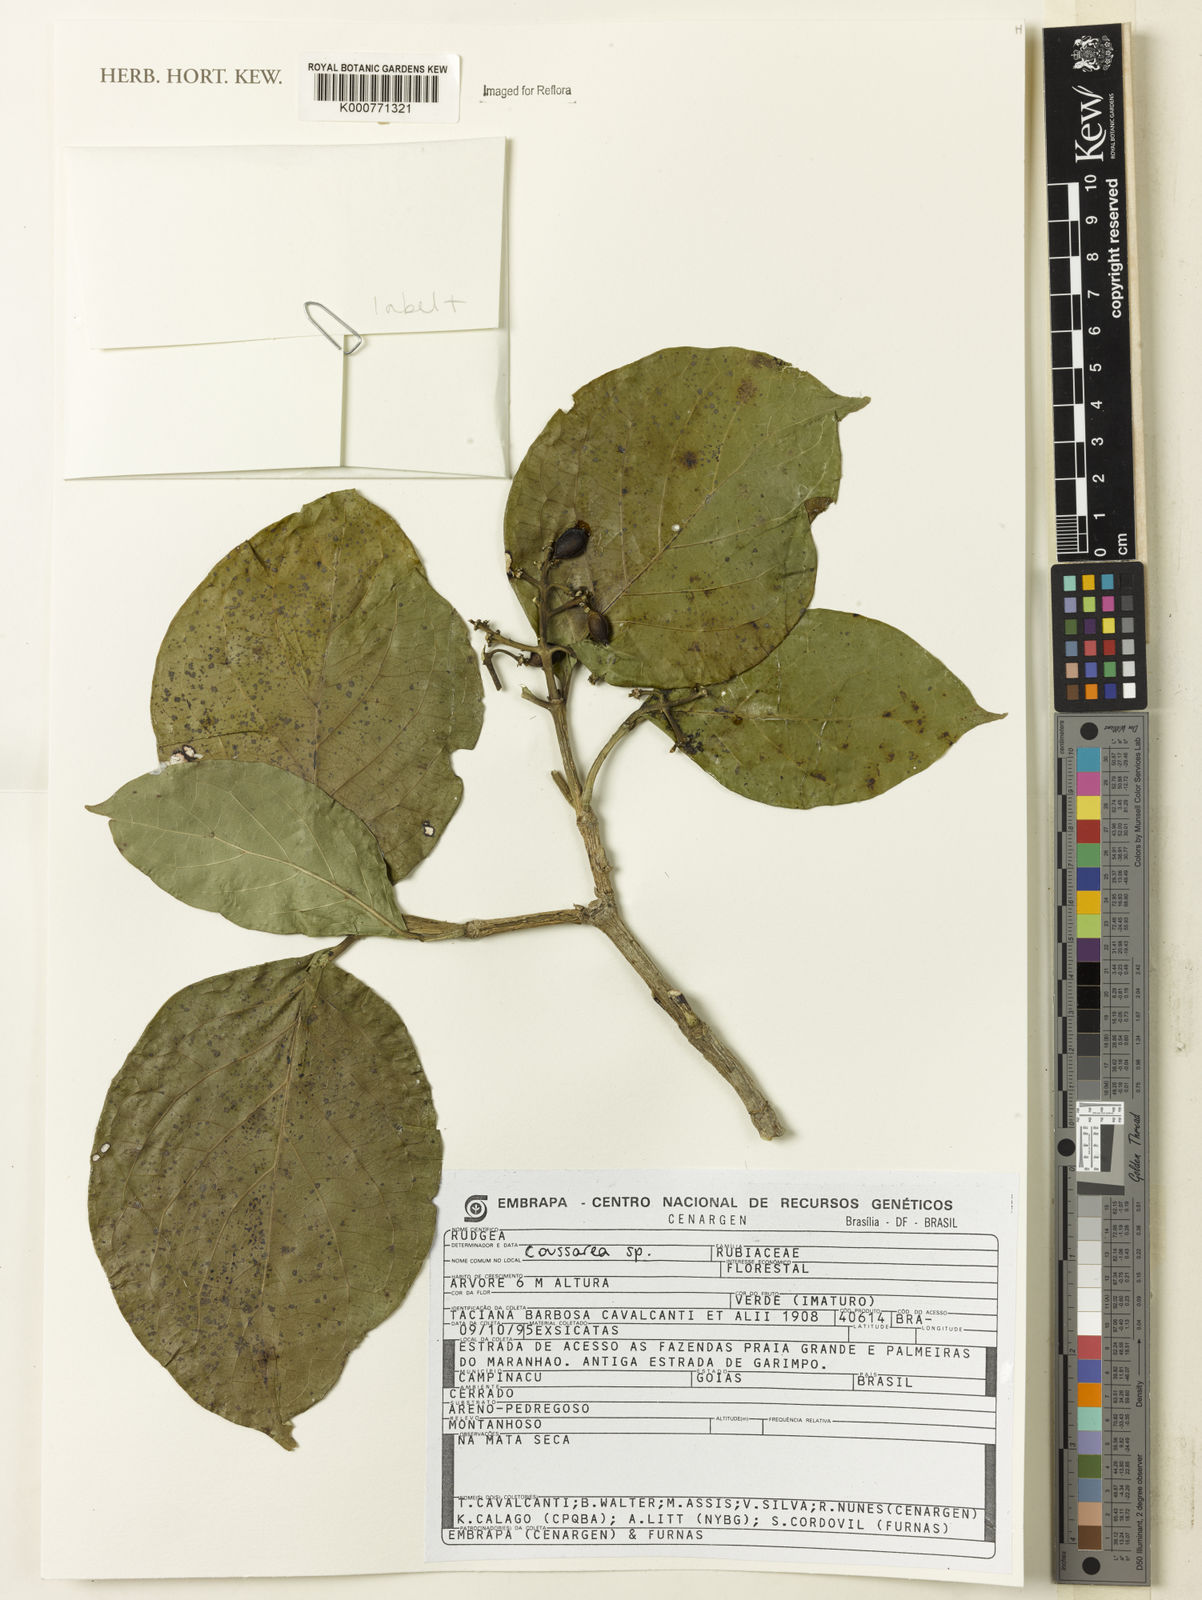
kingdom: Plantae
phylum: Tracheophyta
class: Magnoliopsida
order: Gentianales
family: Rubiaceae
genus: Coussarea
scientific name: Coussarea
